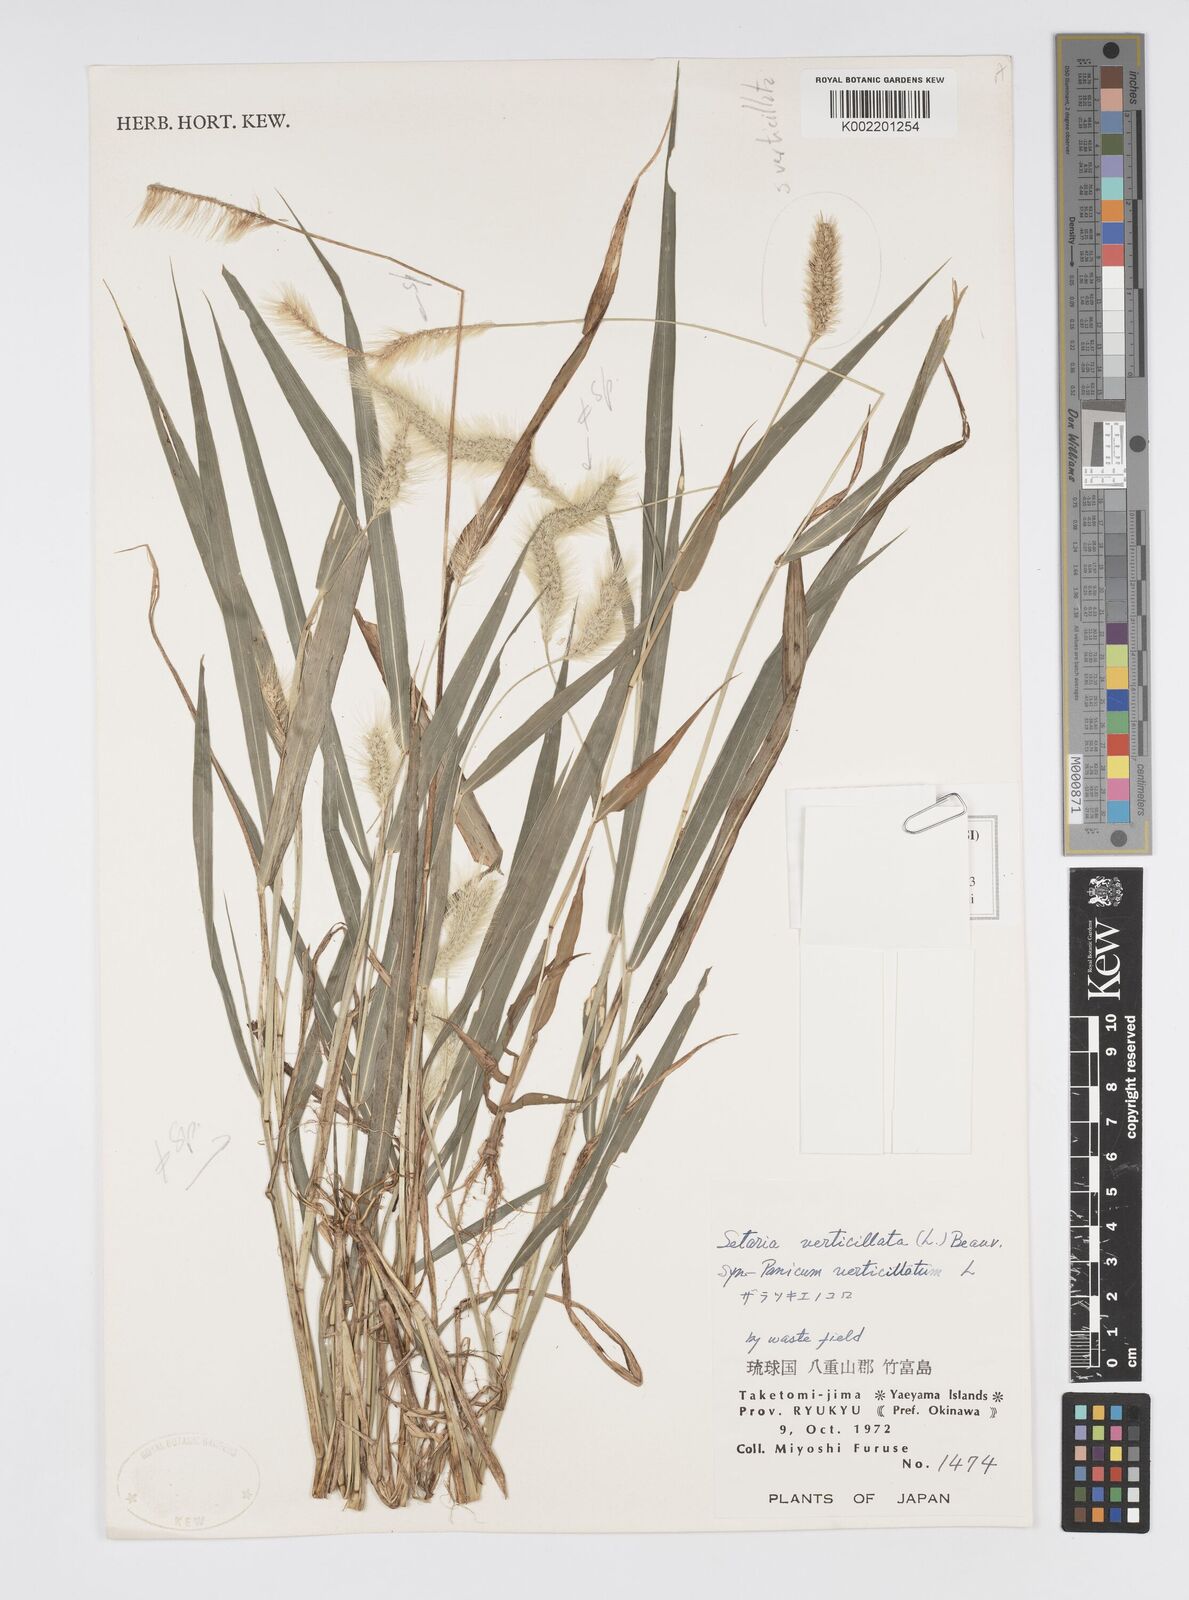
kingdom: Plantae
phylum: Tracheophyta
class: Liliopsida
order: Poales
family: Poaceae
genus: Cenchrus
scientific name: Cenchrus americanus
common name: Pearl millet
